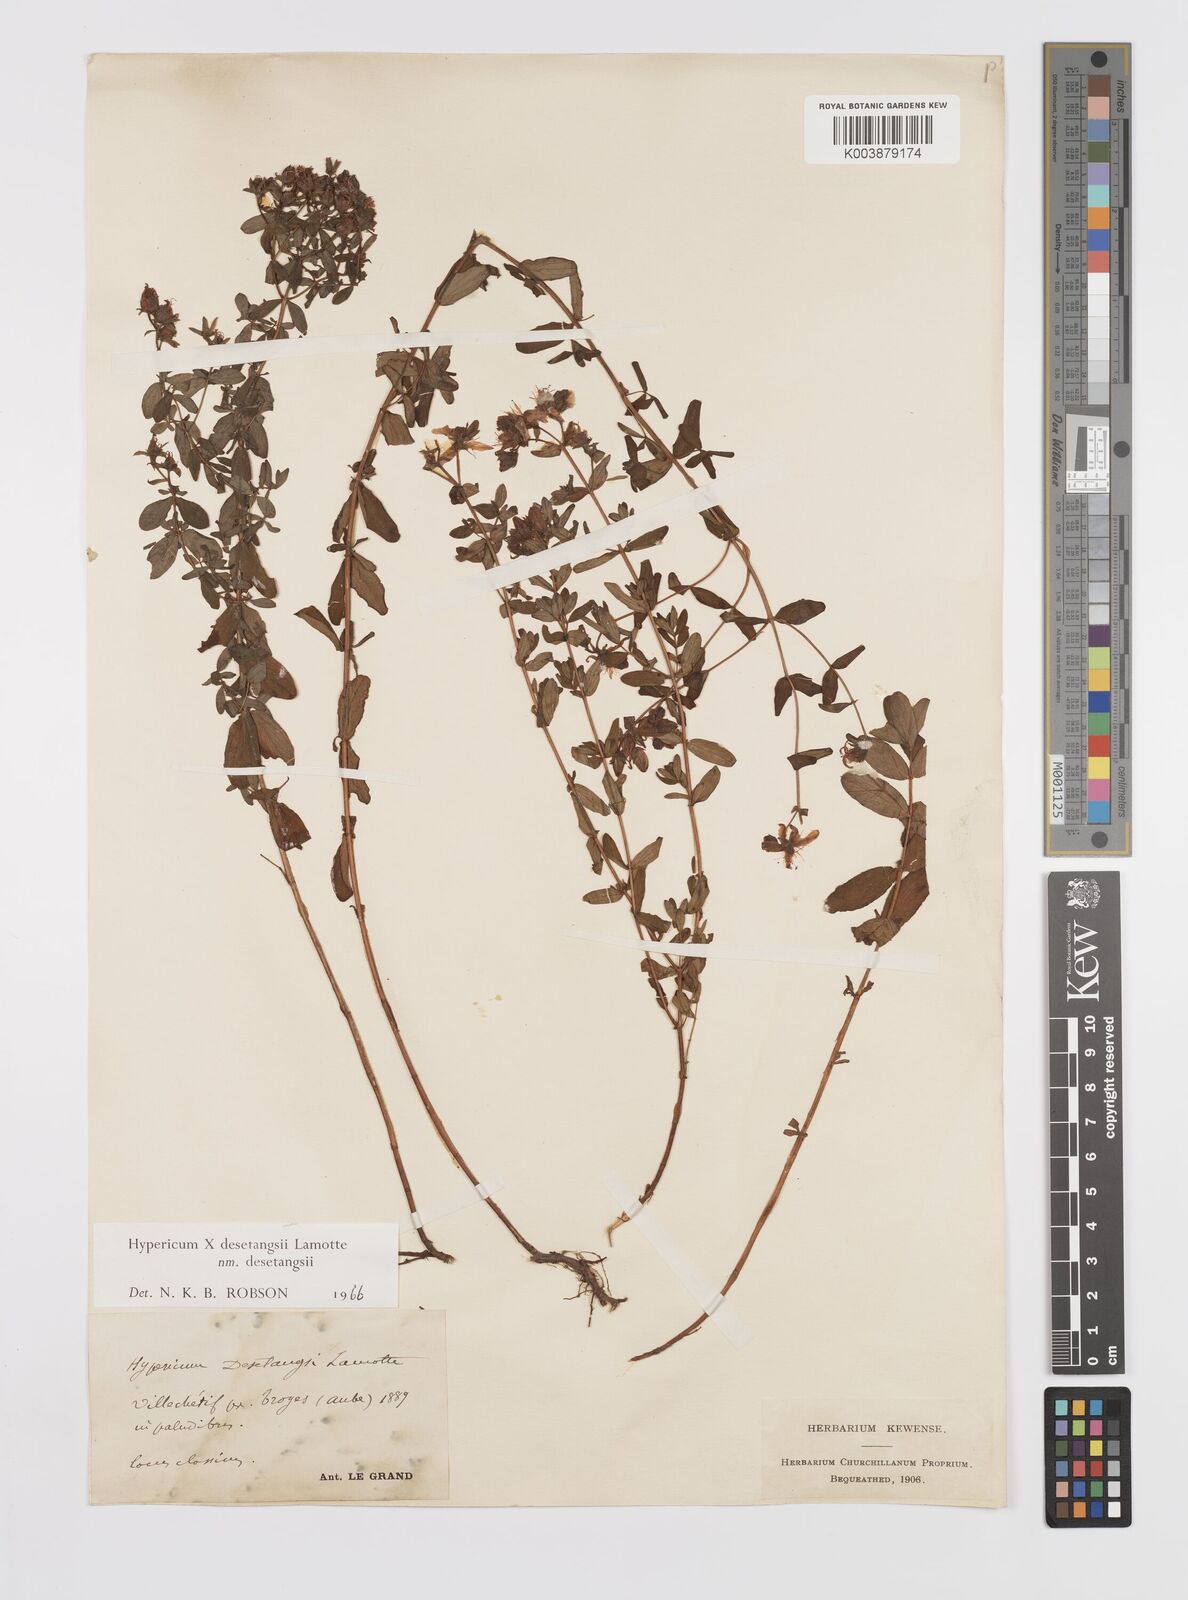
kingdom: Plantae
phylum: Tracheophyta
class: Magnoliopsida
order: Malpighiales
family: Hypericaceae
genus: Hypericum
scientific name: Hypericum desetangsii
